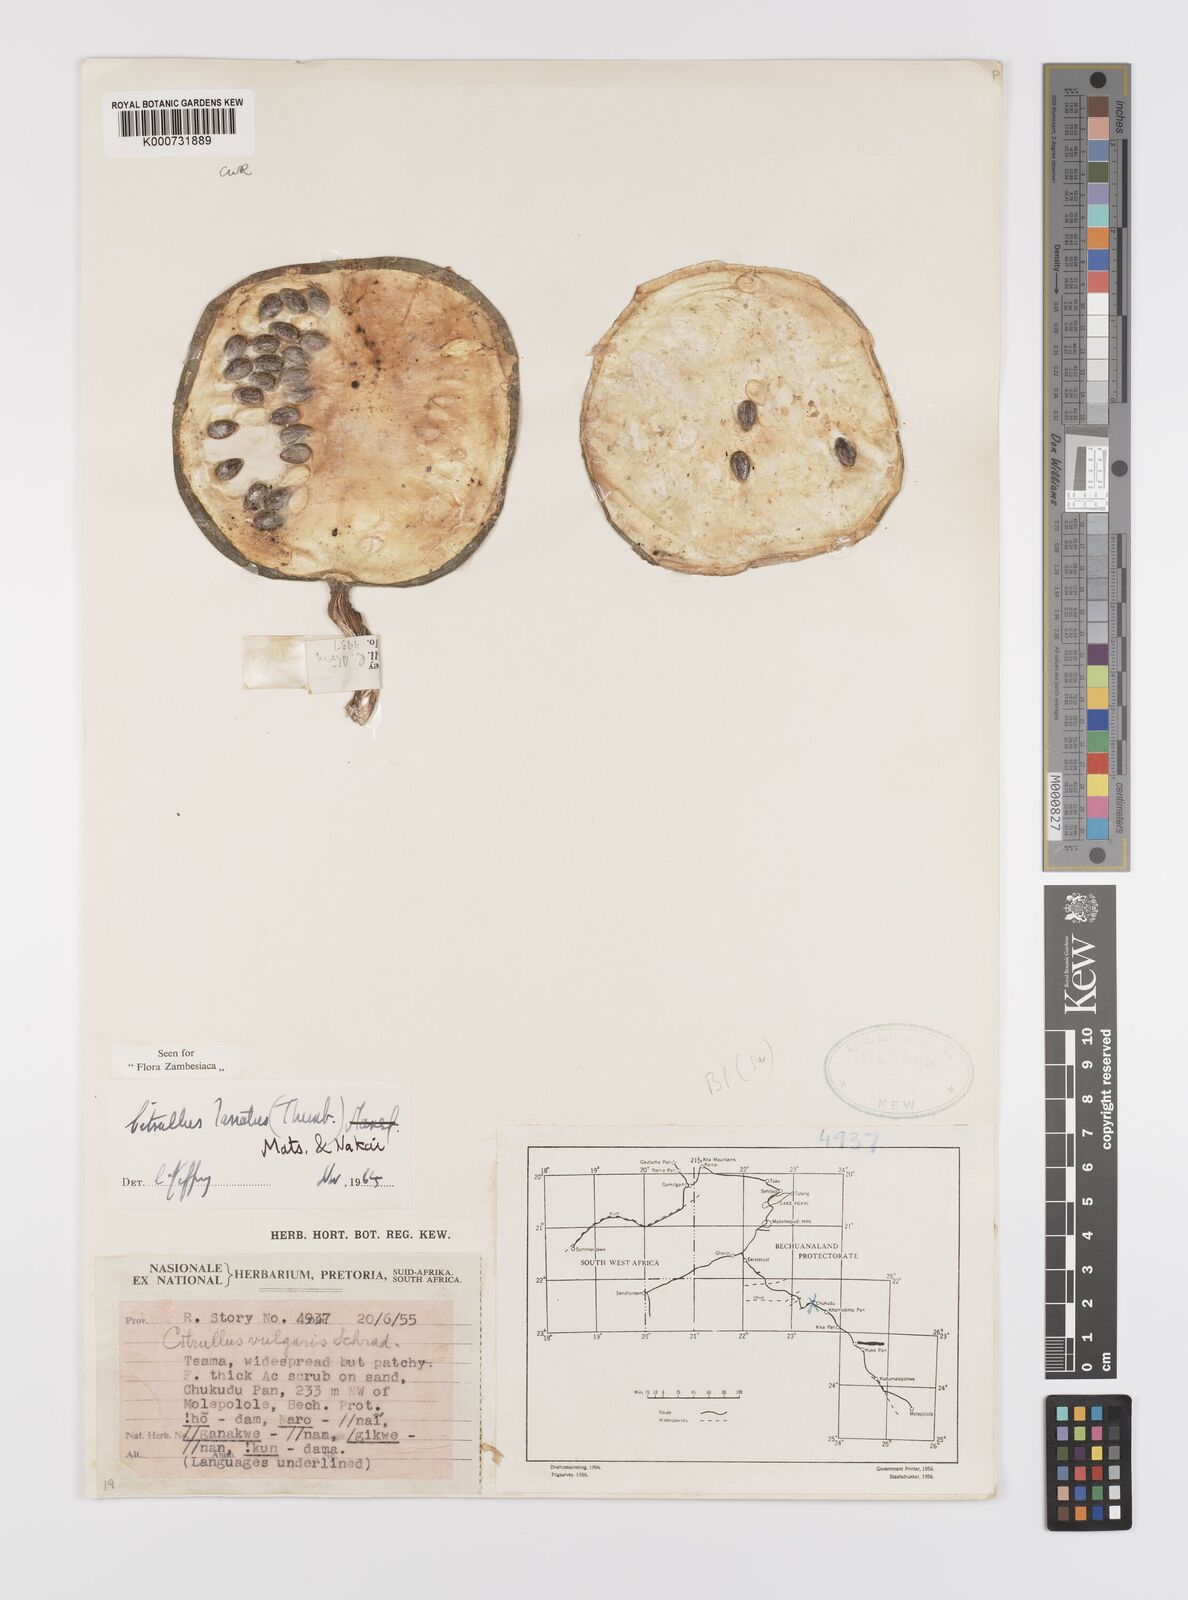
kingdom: Plantae
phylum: Tracheophyta
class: Magnoliopsida
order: Cucurbitales
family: Cucurbitaceae
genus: Citrullus
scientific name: Citrullus lanatus
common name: Watermelon
